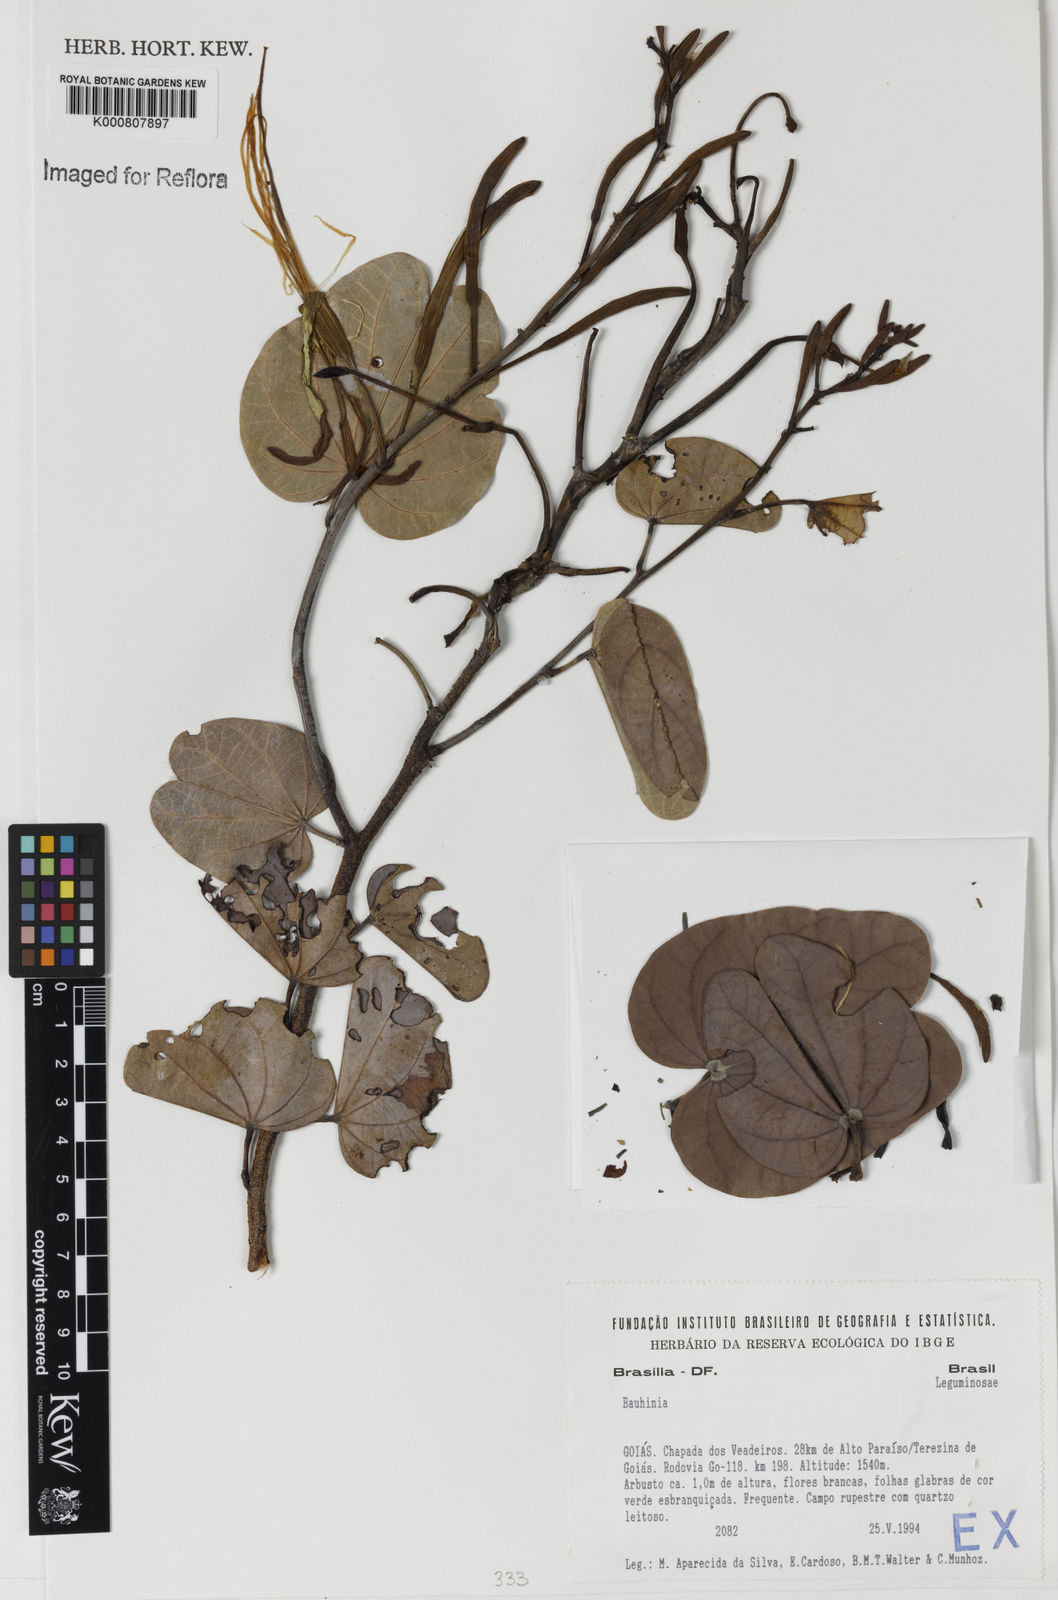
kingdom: Plantae
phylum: Tracheophyta
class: Magnoliopsida
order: Fabales
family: Fabaceae
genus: Bauhinia
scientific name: Bauhinia
